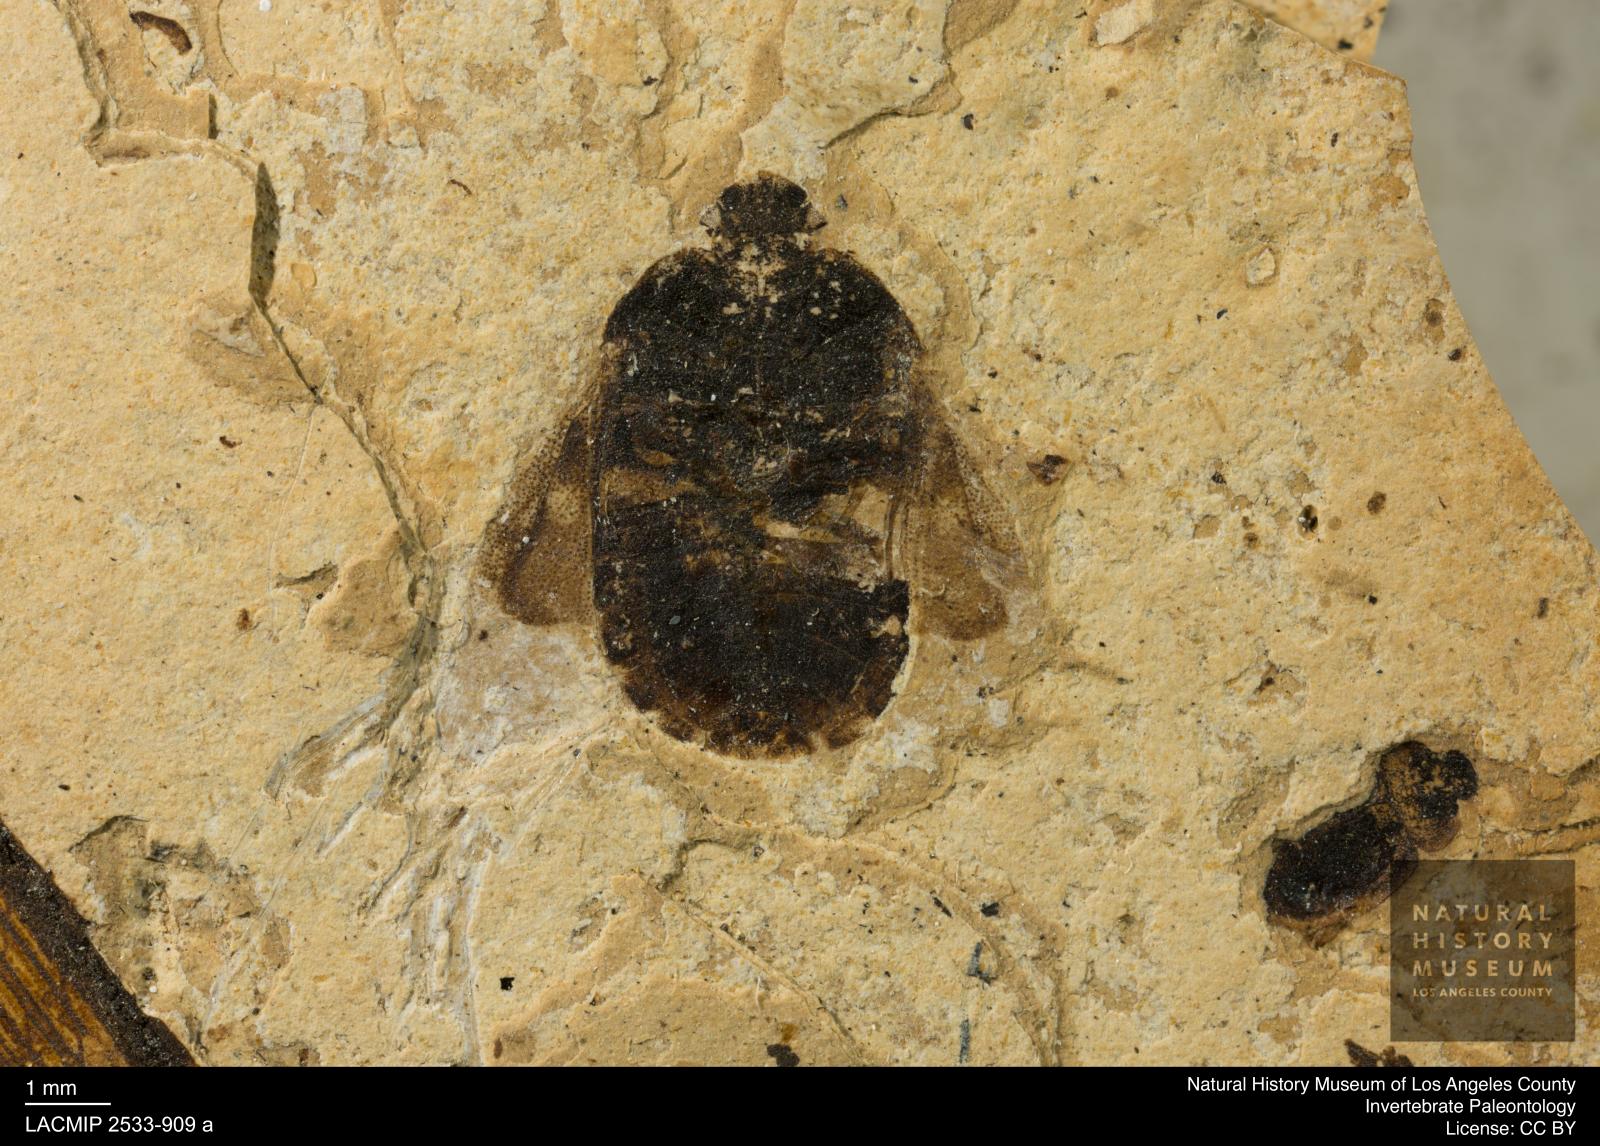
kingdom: Animalia
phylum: Arthropoda
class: Insecta
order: Hemiptera
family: Cydnidae
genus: Sehirus
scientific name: Sehirus paludosus
